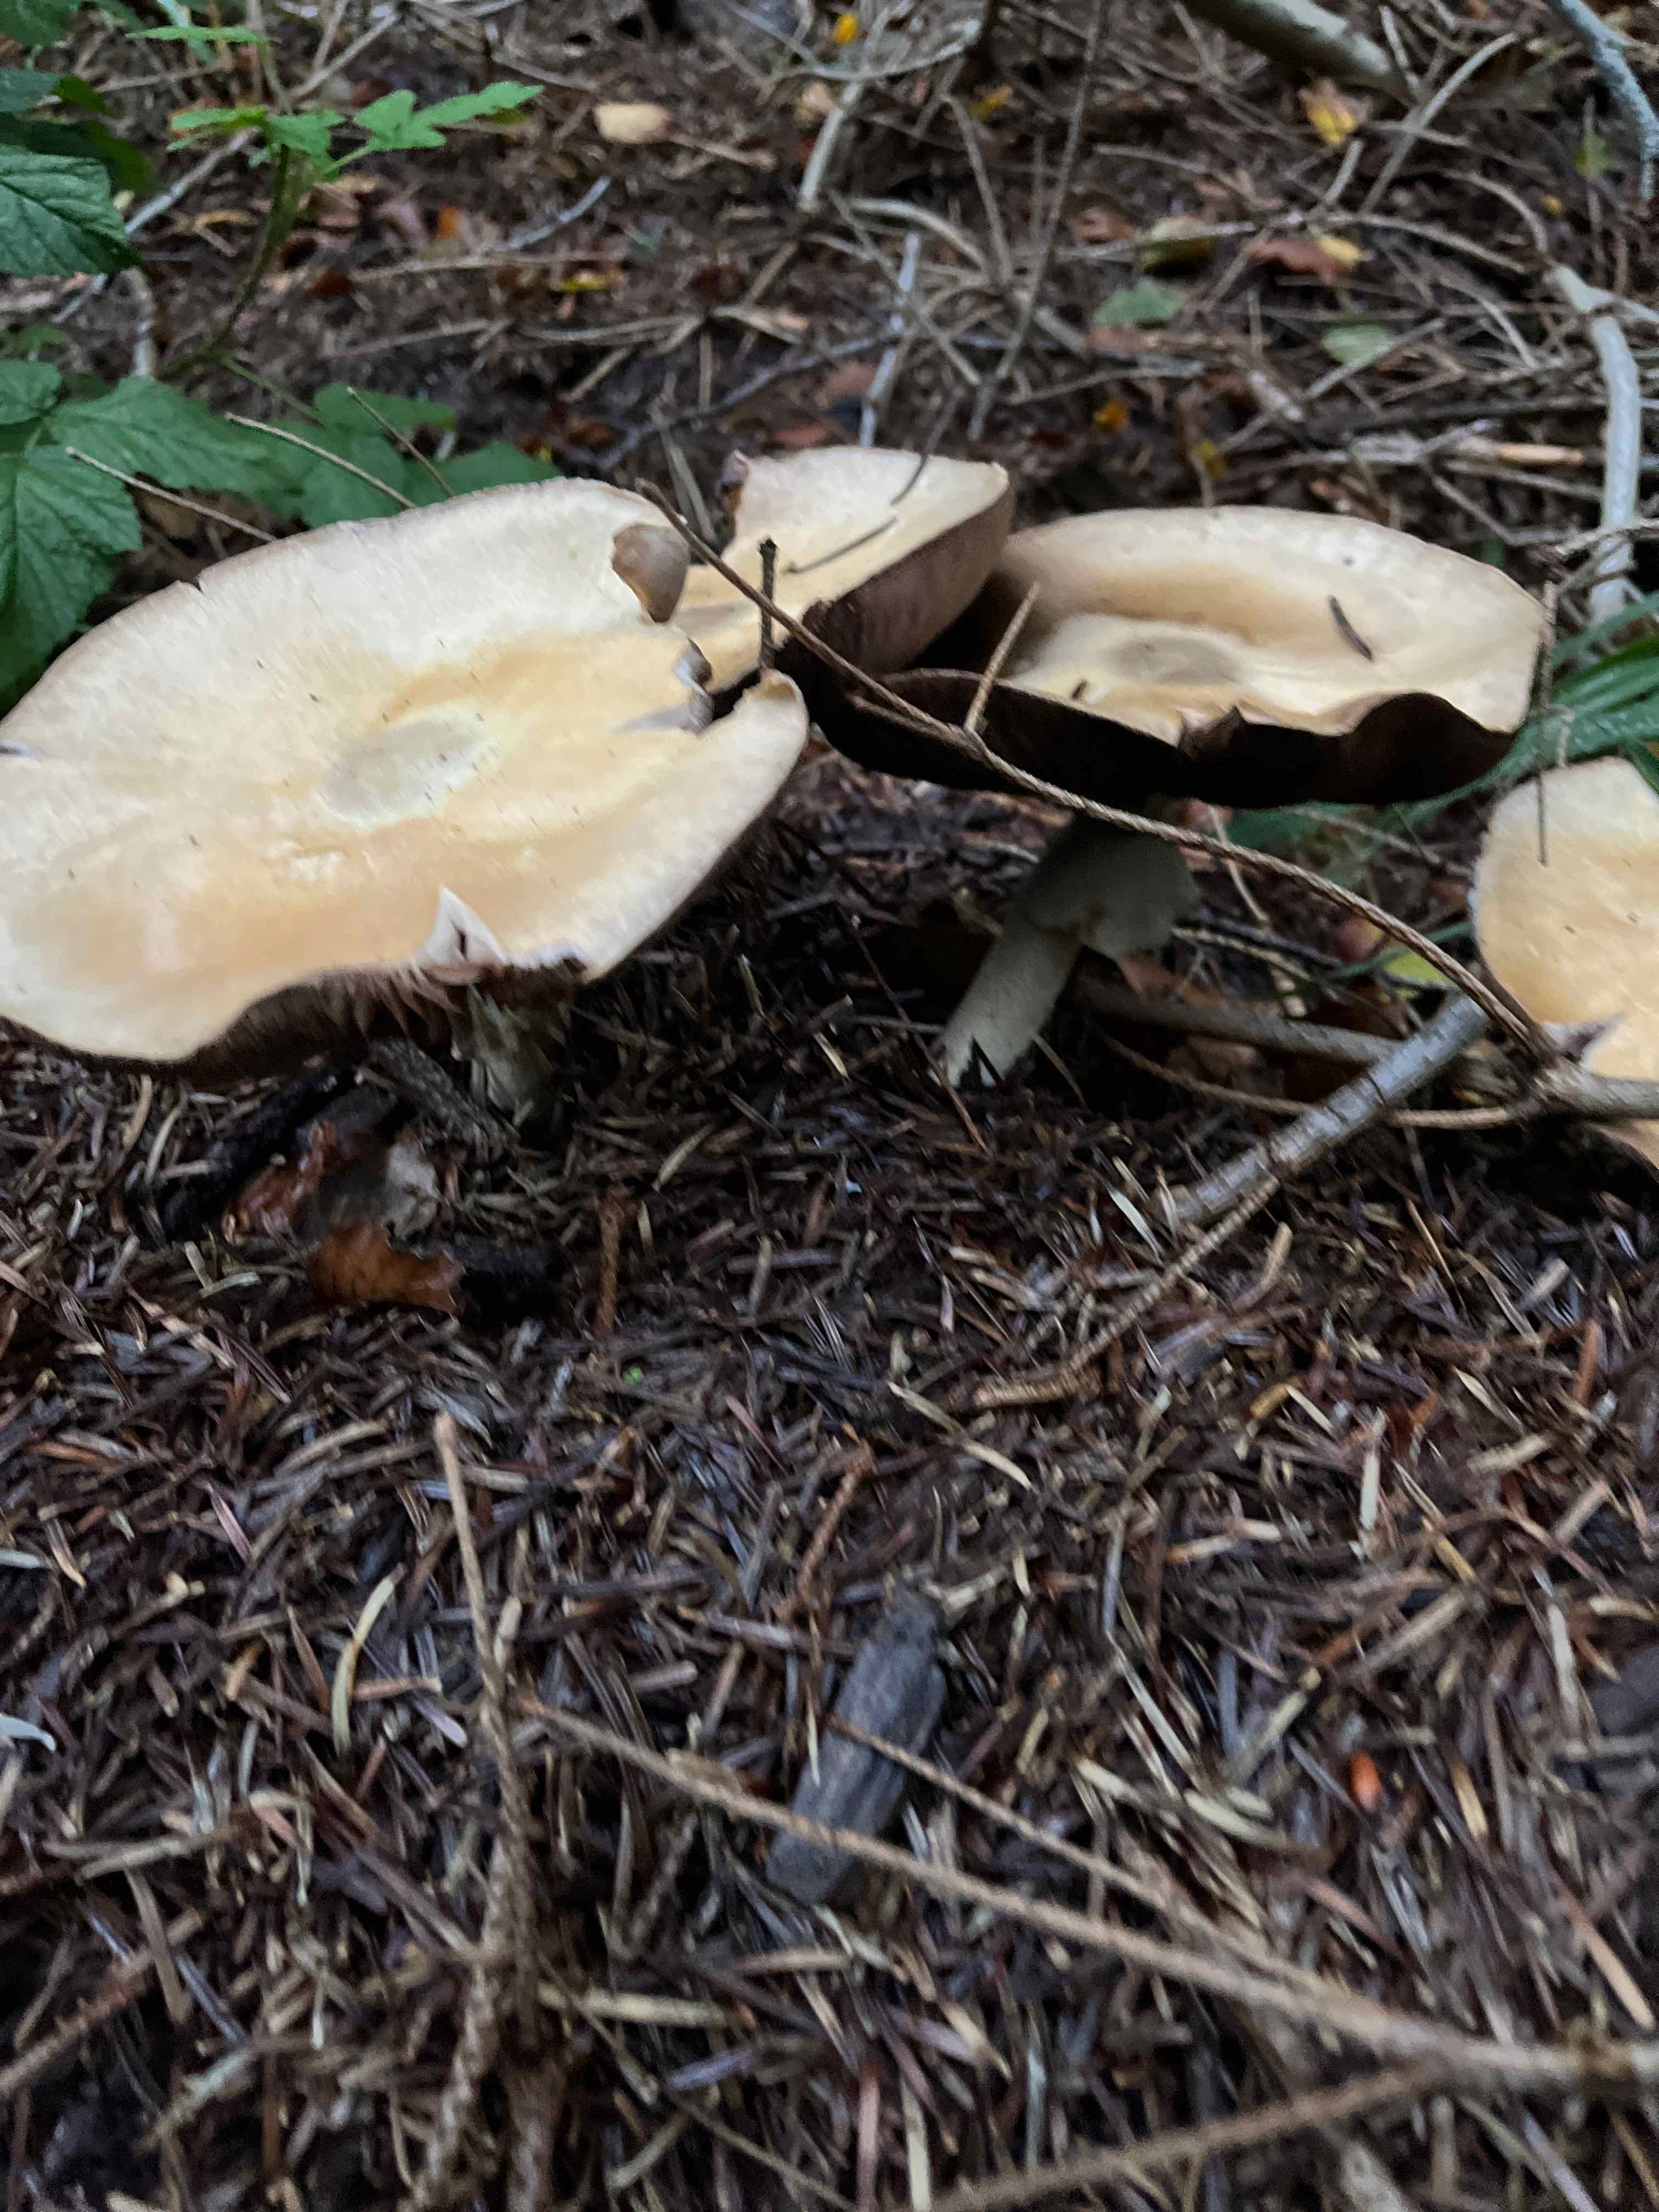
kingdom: Fungi
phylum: Basidiomycota
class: Agaricomycetes
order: Agaricales
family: Agaricaceae
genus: Agaricus
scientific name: Agaricus sylvicola
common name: gulhvid champignon
